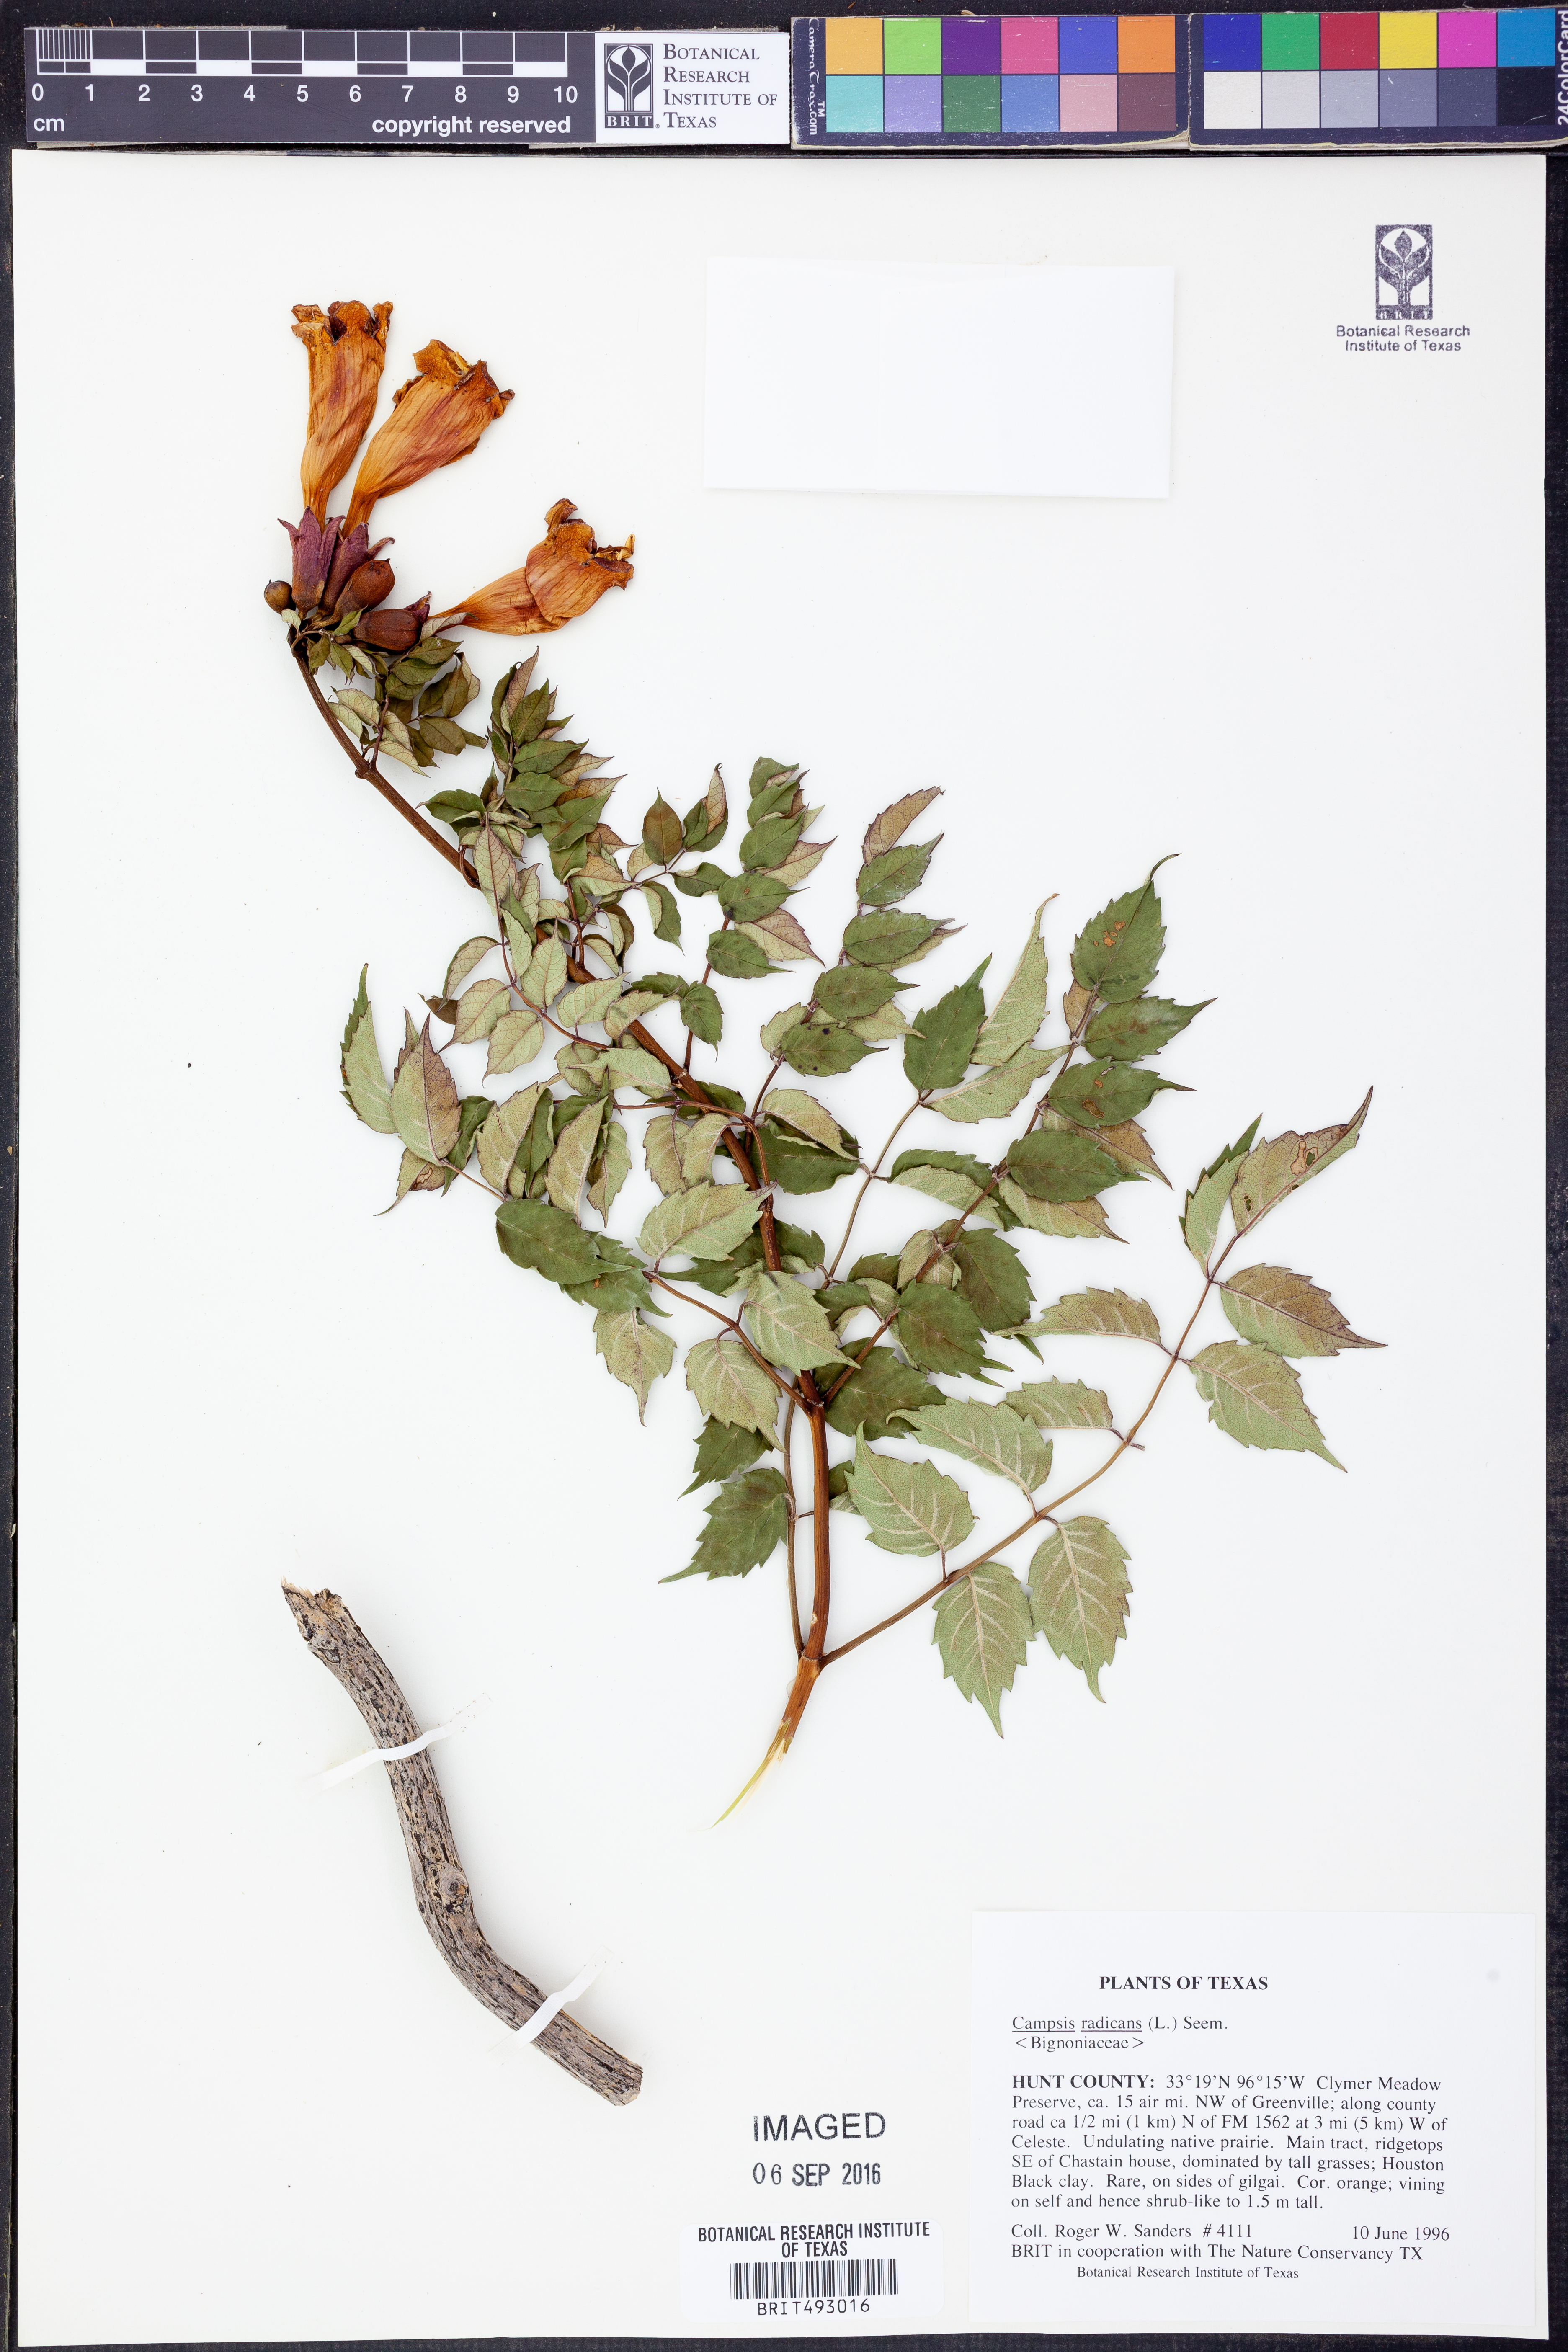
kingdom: Plantae
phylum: Tracheophyta
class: Magnoliopsida
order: Lamiales
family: Bignoniaceae
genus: Campsis
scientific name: Campsis radicans
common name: Trumpet-creeper
